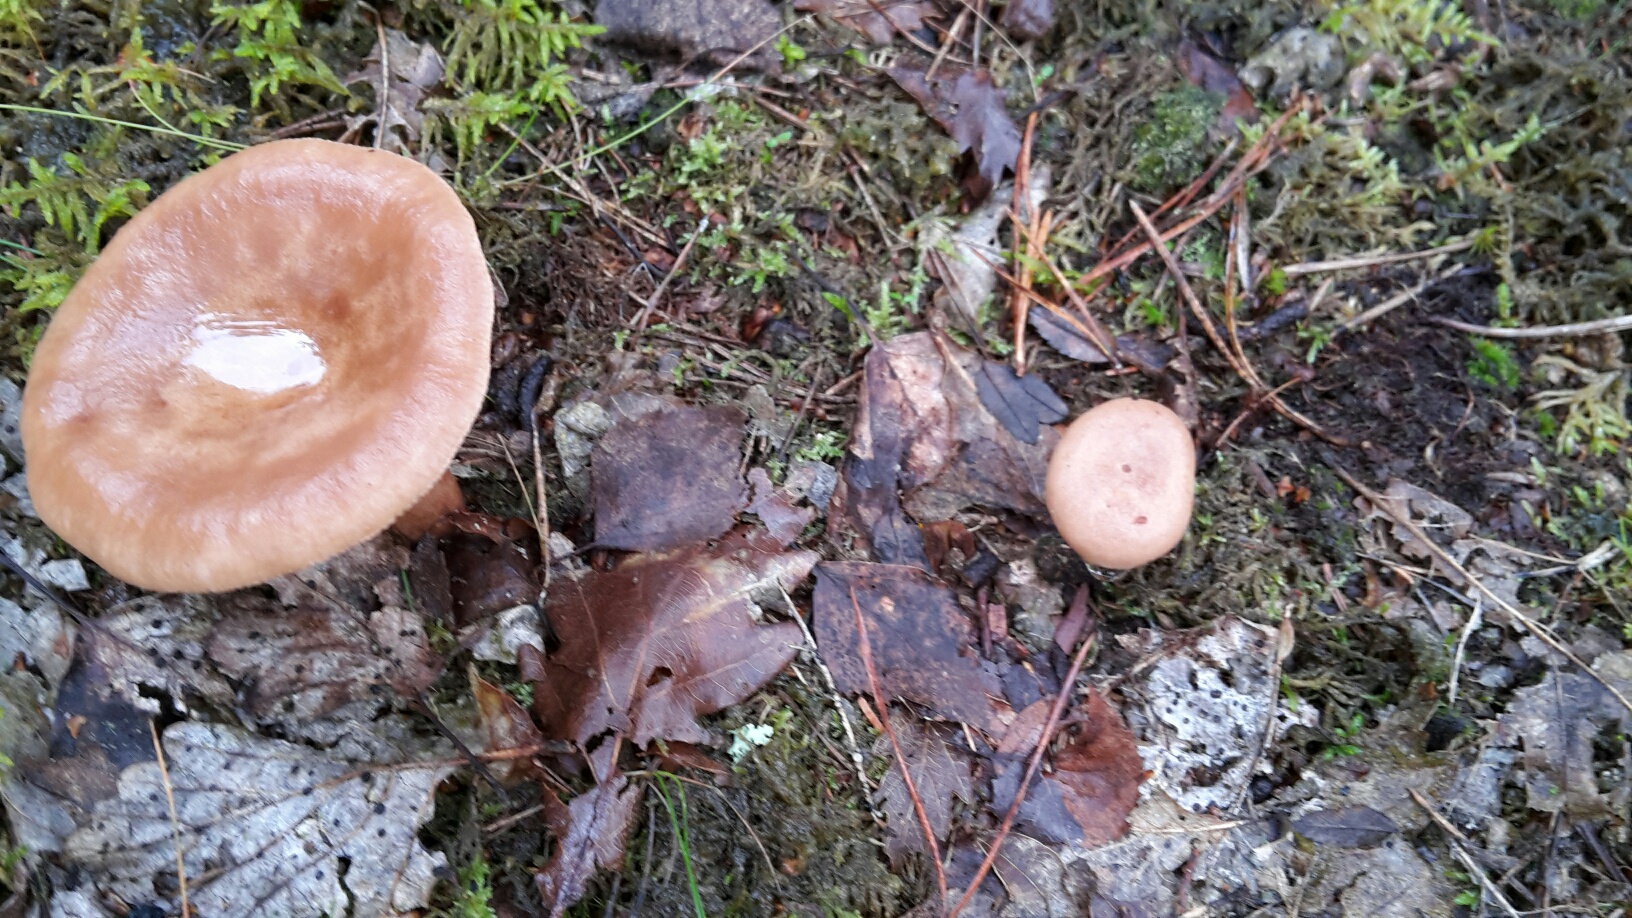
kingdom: Fungi
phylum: Basidiomycota
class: Agaricomycetes
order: Russulales
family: Russulaceae
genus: Lactarius
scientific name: Lactarius quietus
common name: ege-mælkehat
